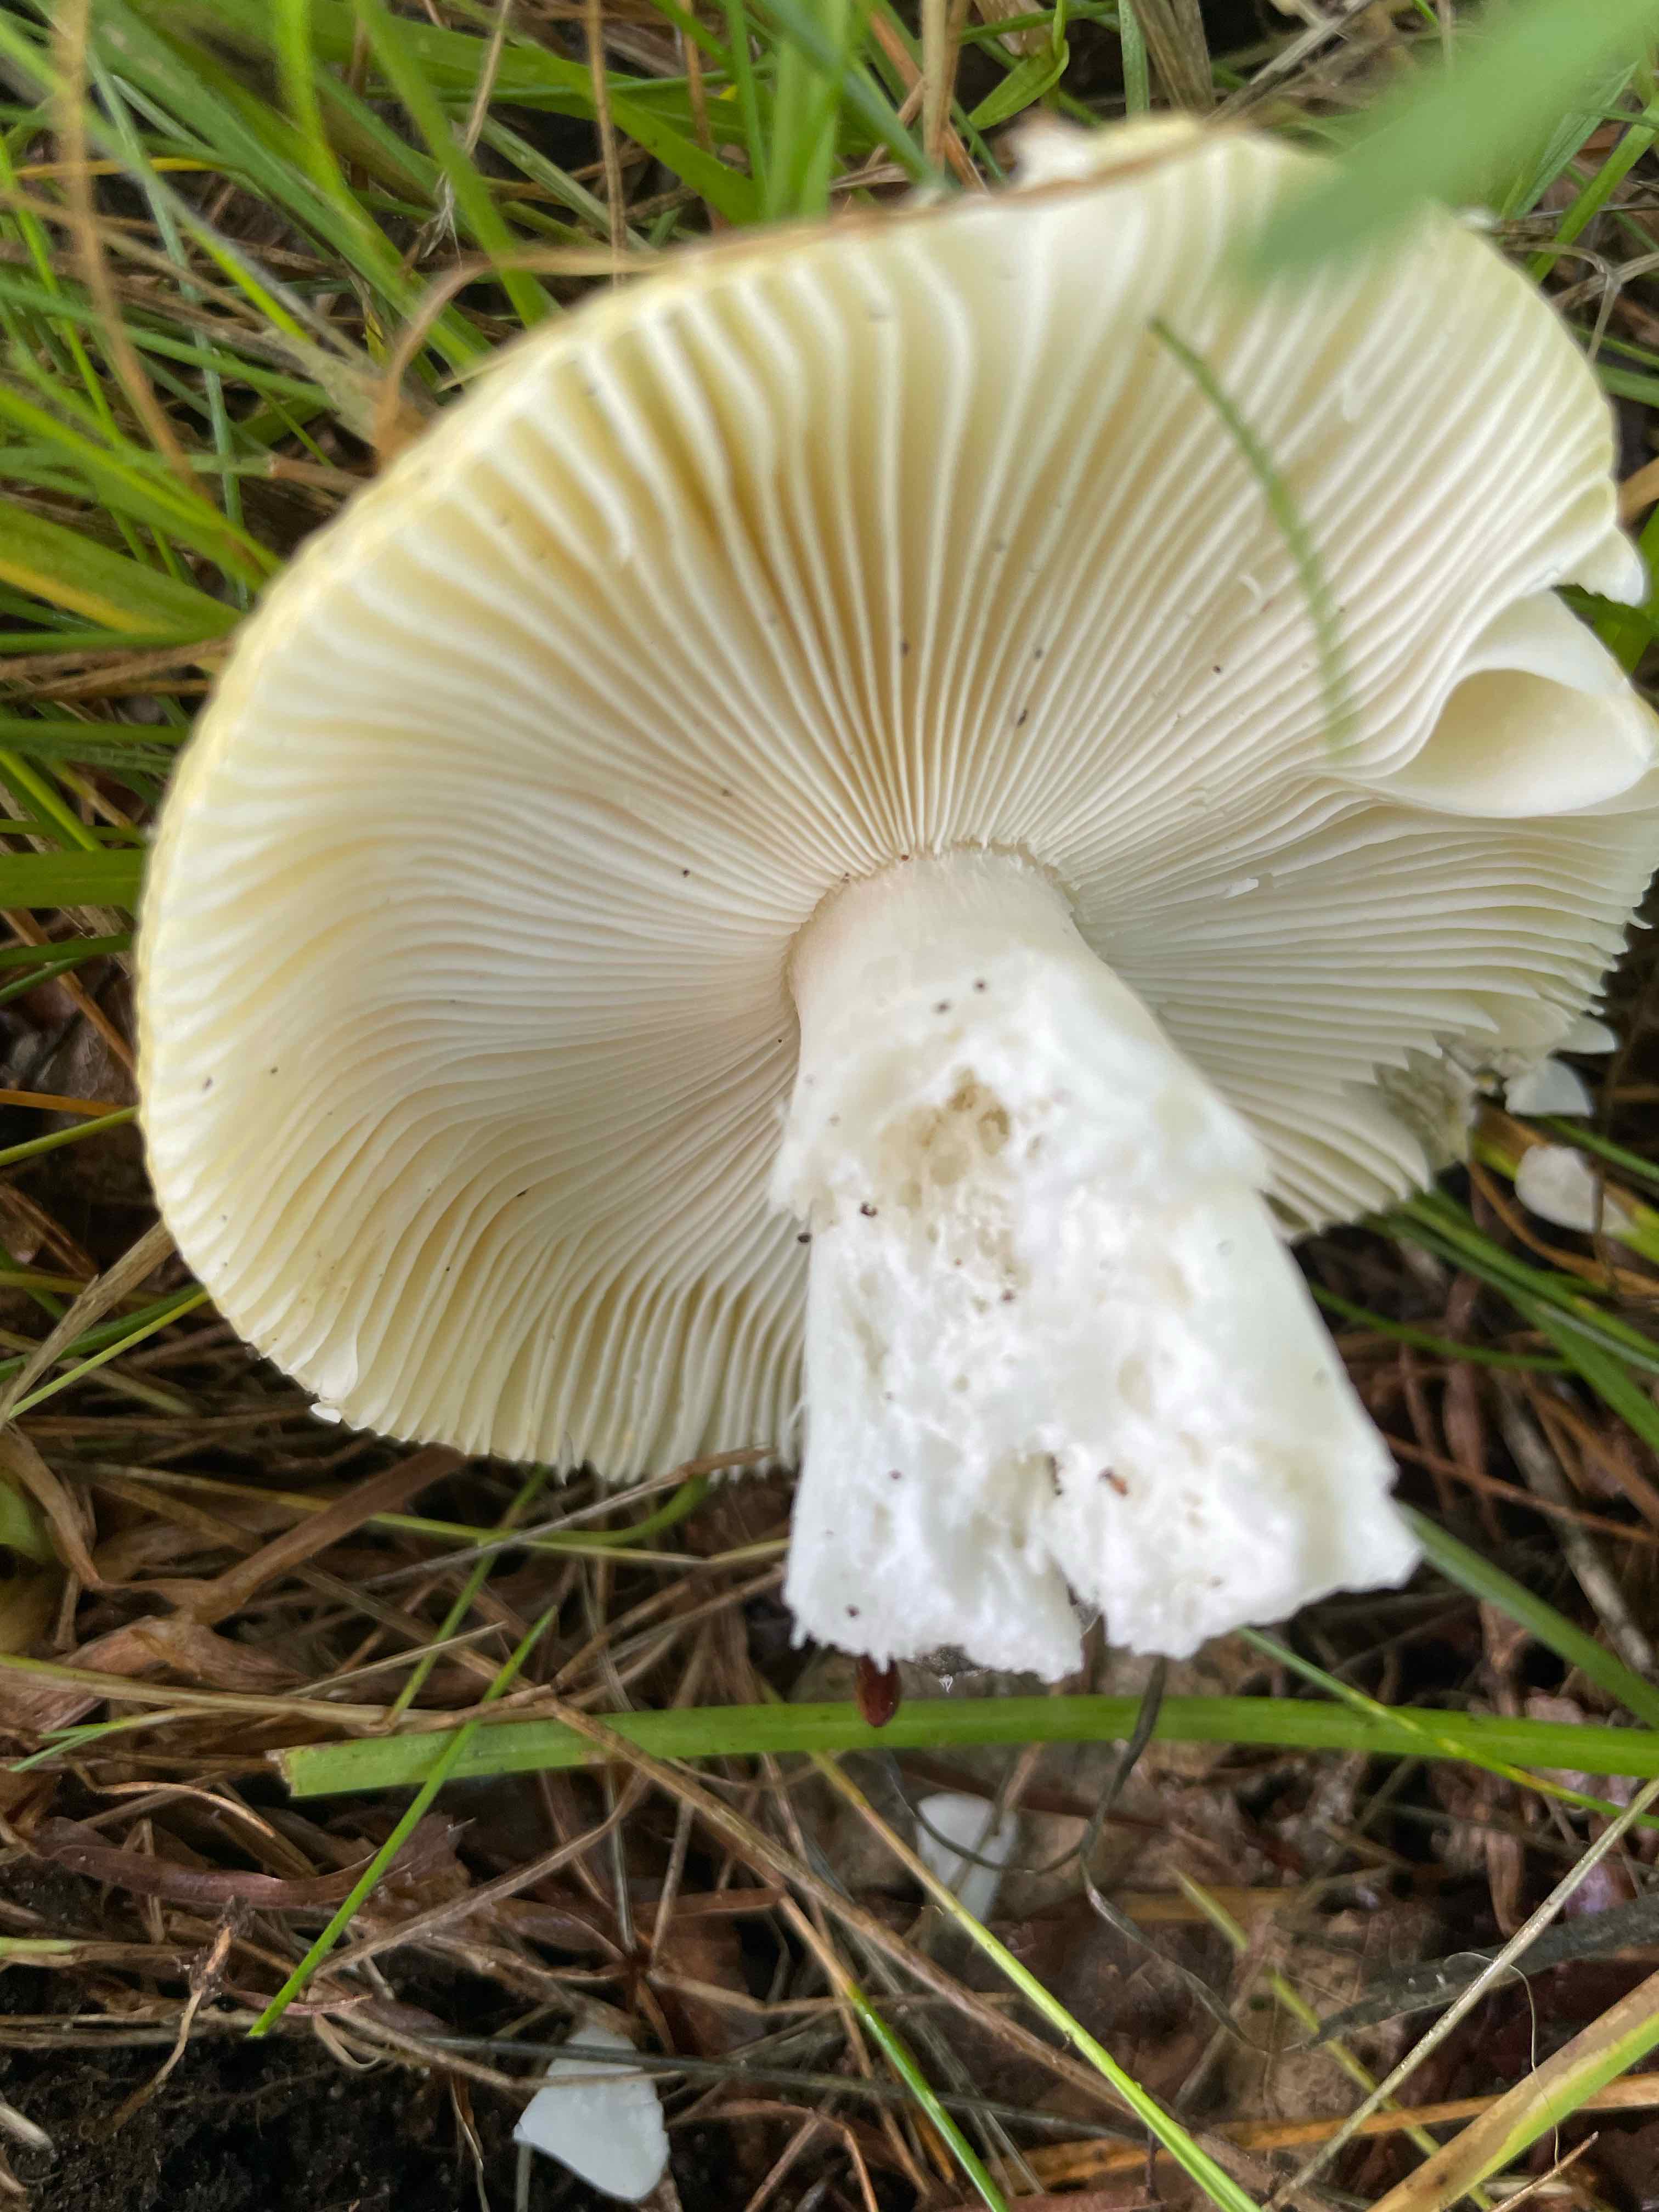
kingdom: Fungi
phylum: Basidiomycota
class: Agaricomycetes
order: Russulales
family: Russulaceae
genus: Russula
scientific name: Russula
